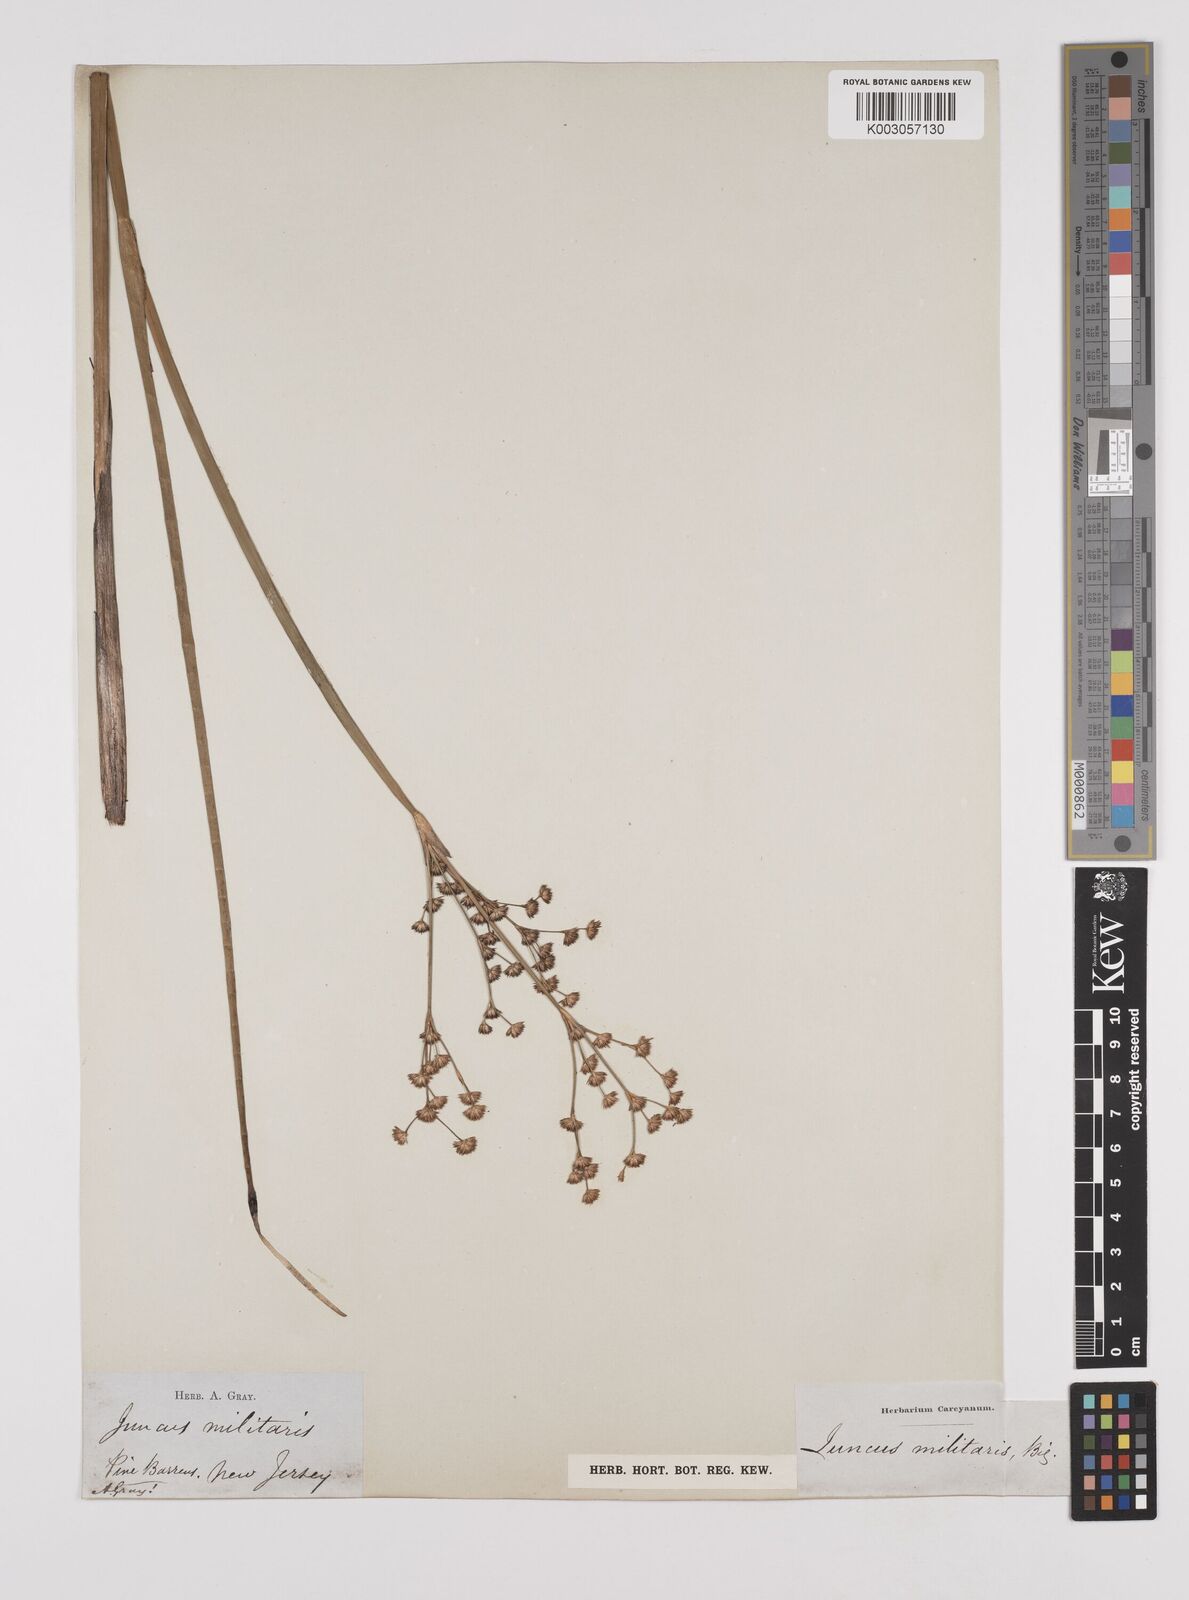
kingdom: Plantae
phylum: Tracheophyta
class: Liliopsida
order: Poales
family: Juncaceae
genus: Juncus
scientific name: Juncus militaris
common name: Bayonet rush
